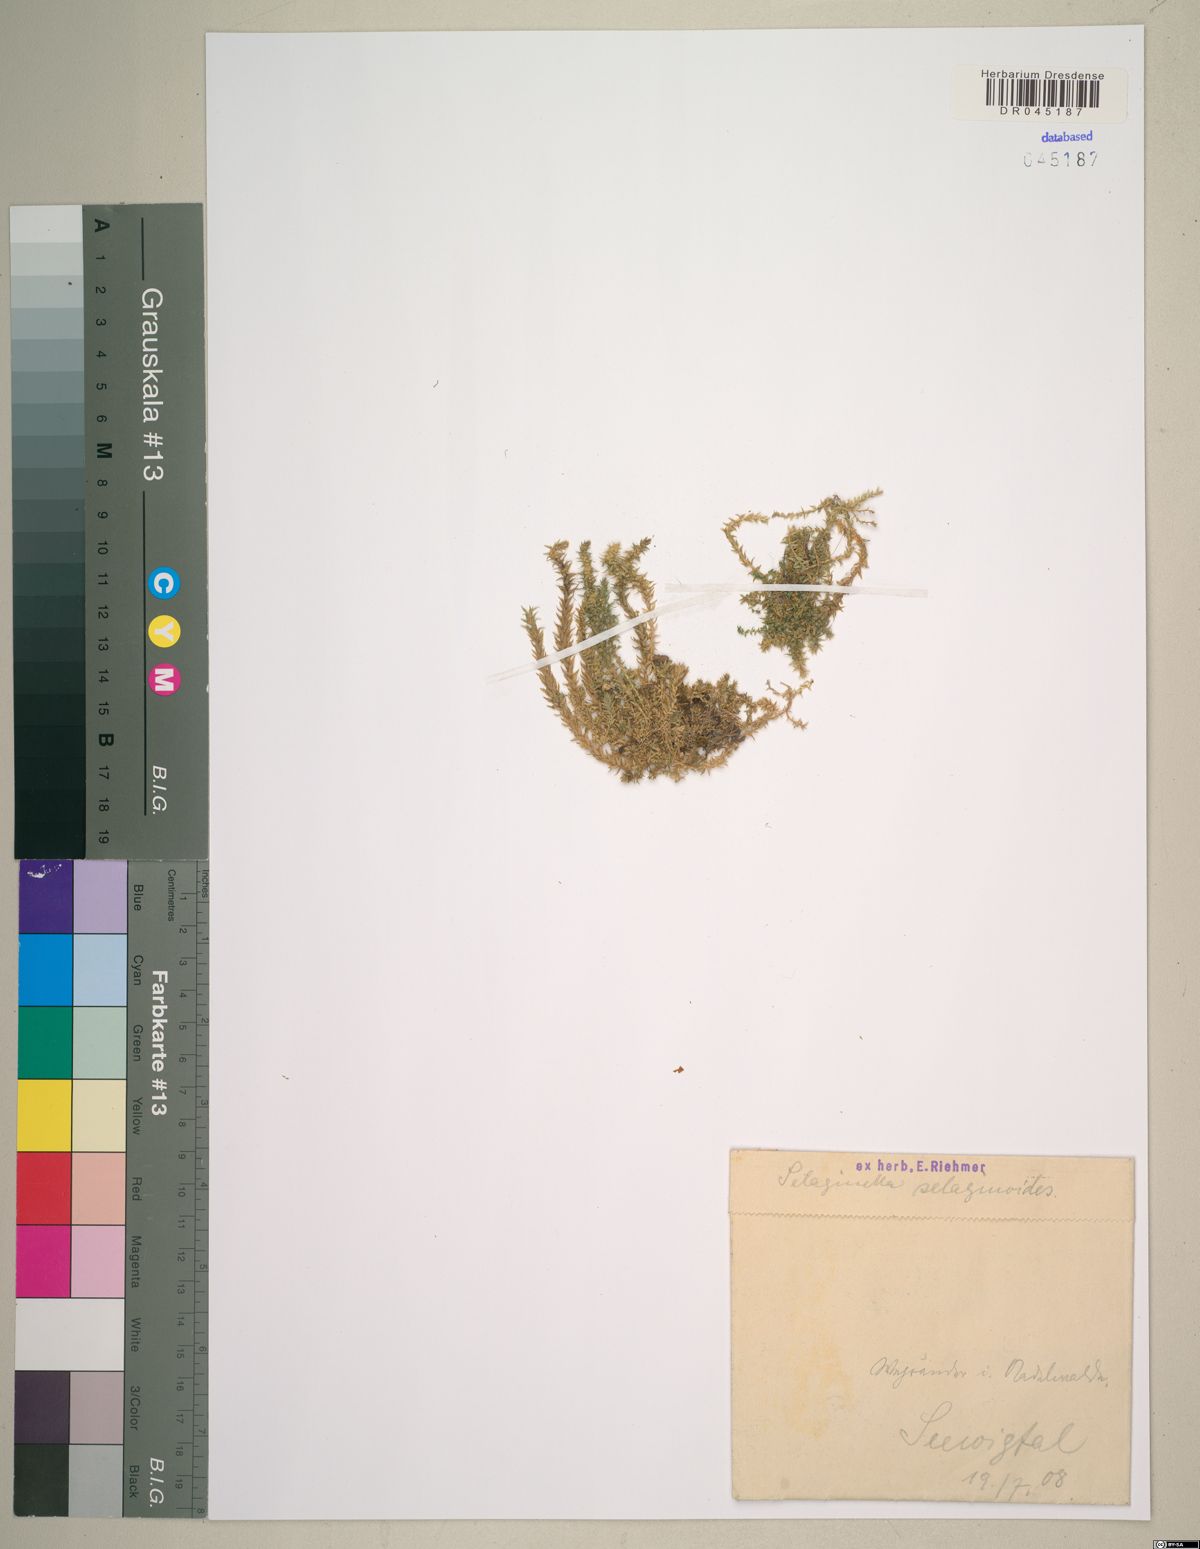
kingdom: Plantae
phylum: Tracheophyta
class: Lycopodiopsida
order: Selaginellales
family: Selaginellaceae
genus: Selaginella
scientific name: Selaginella selaginoides
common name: Prickly mountain-moss
